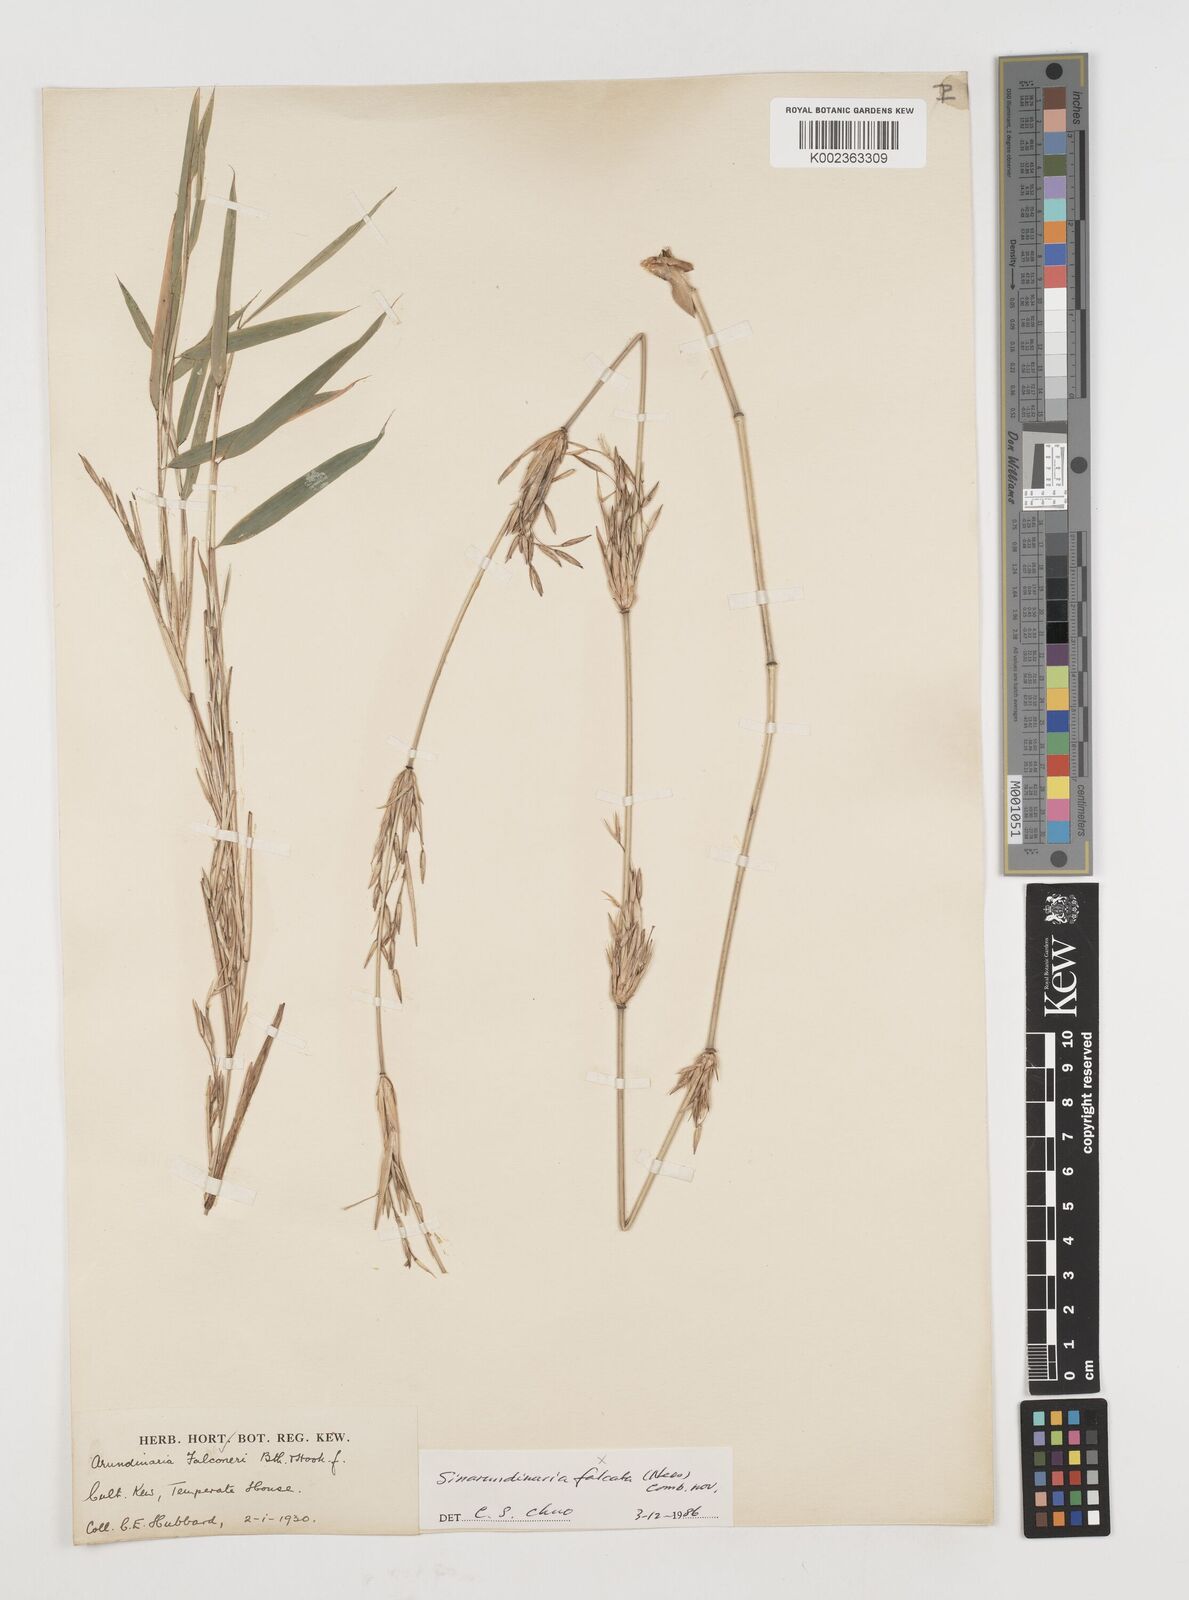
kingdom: Plantae
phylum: Tracheophyta
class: Liliopsida
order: Poales
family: Poaceae
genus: Himalayacalamus
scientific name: Himalayacalamus falconeri
